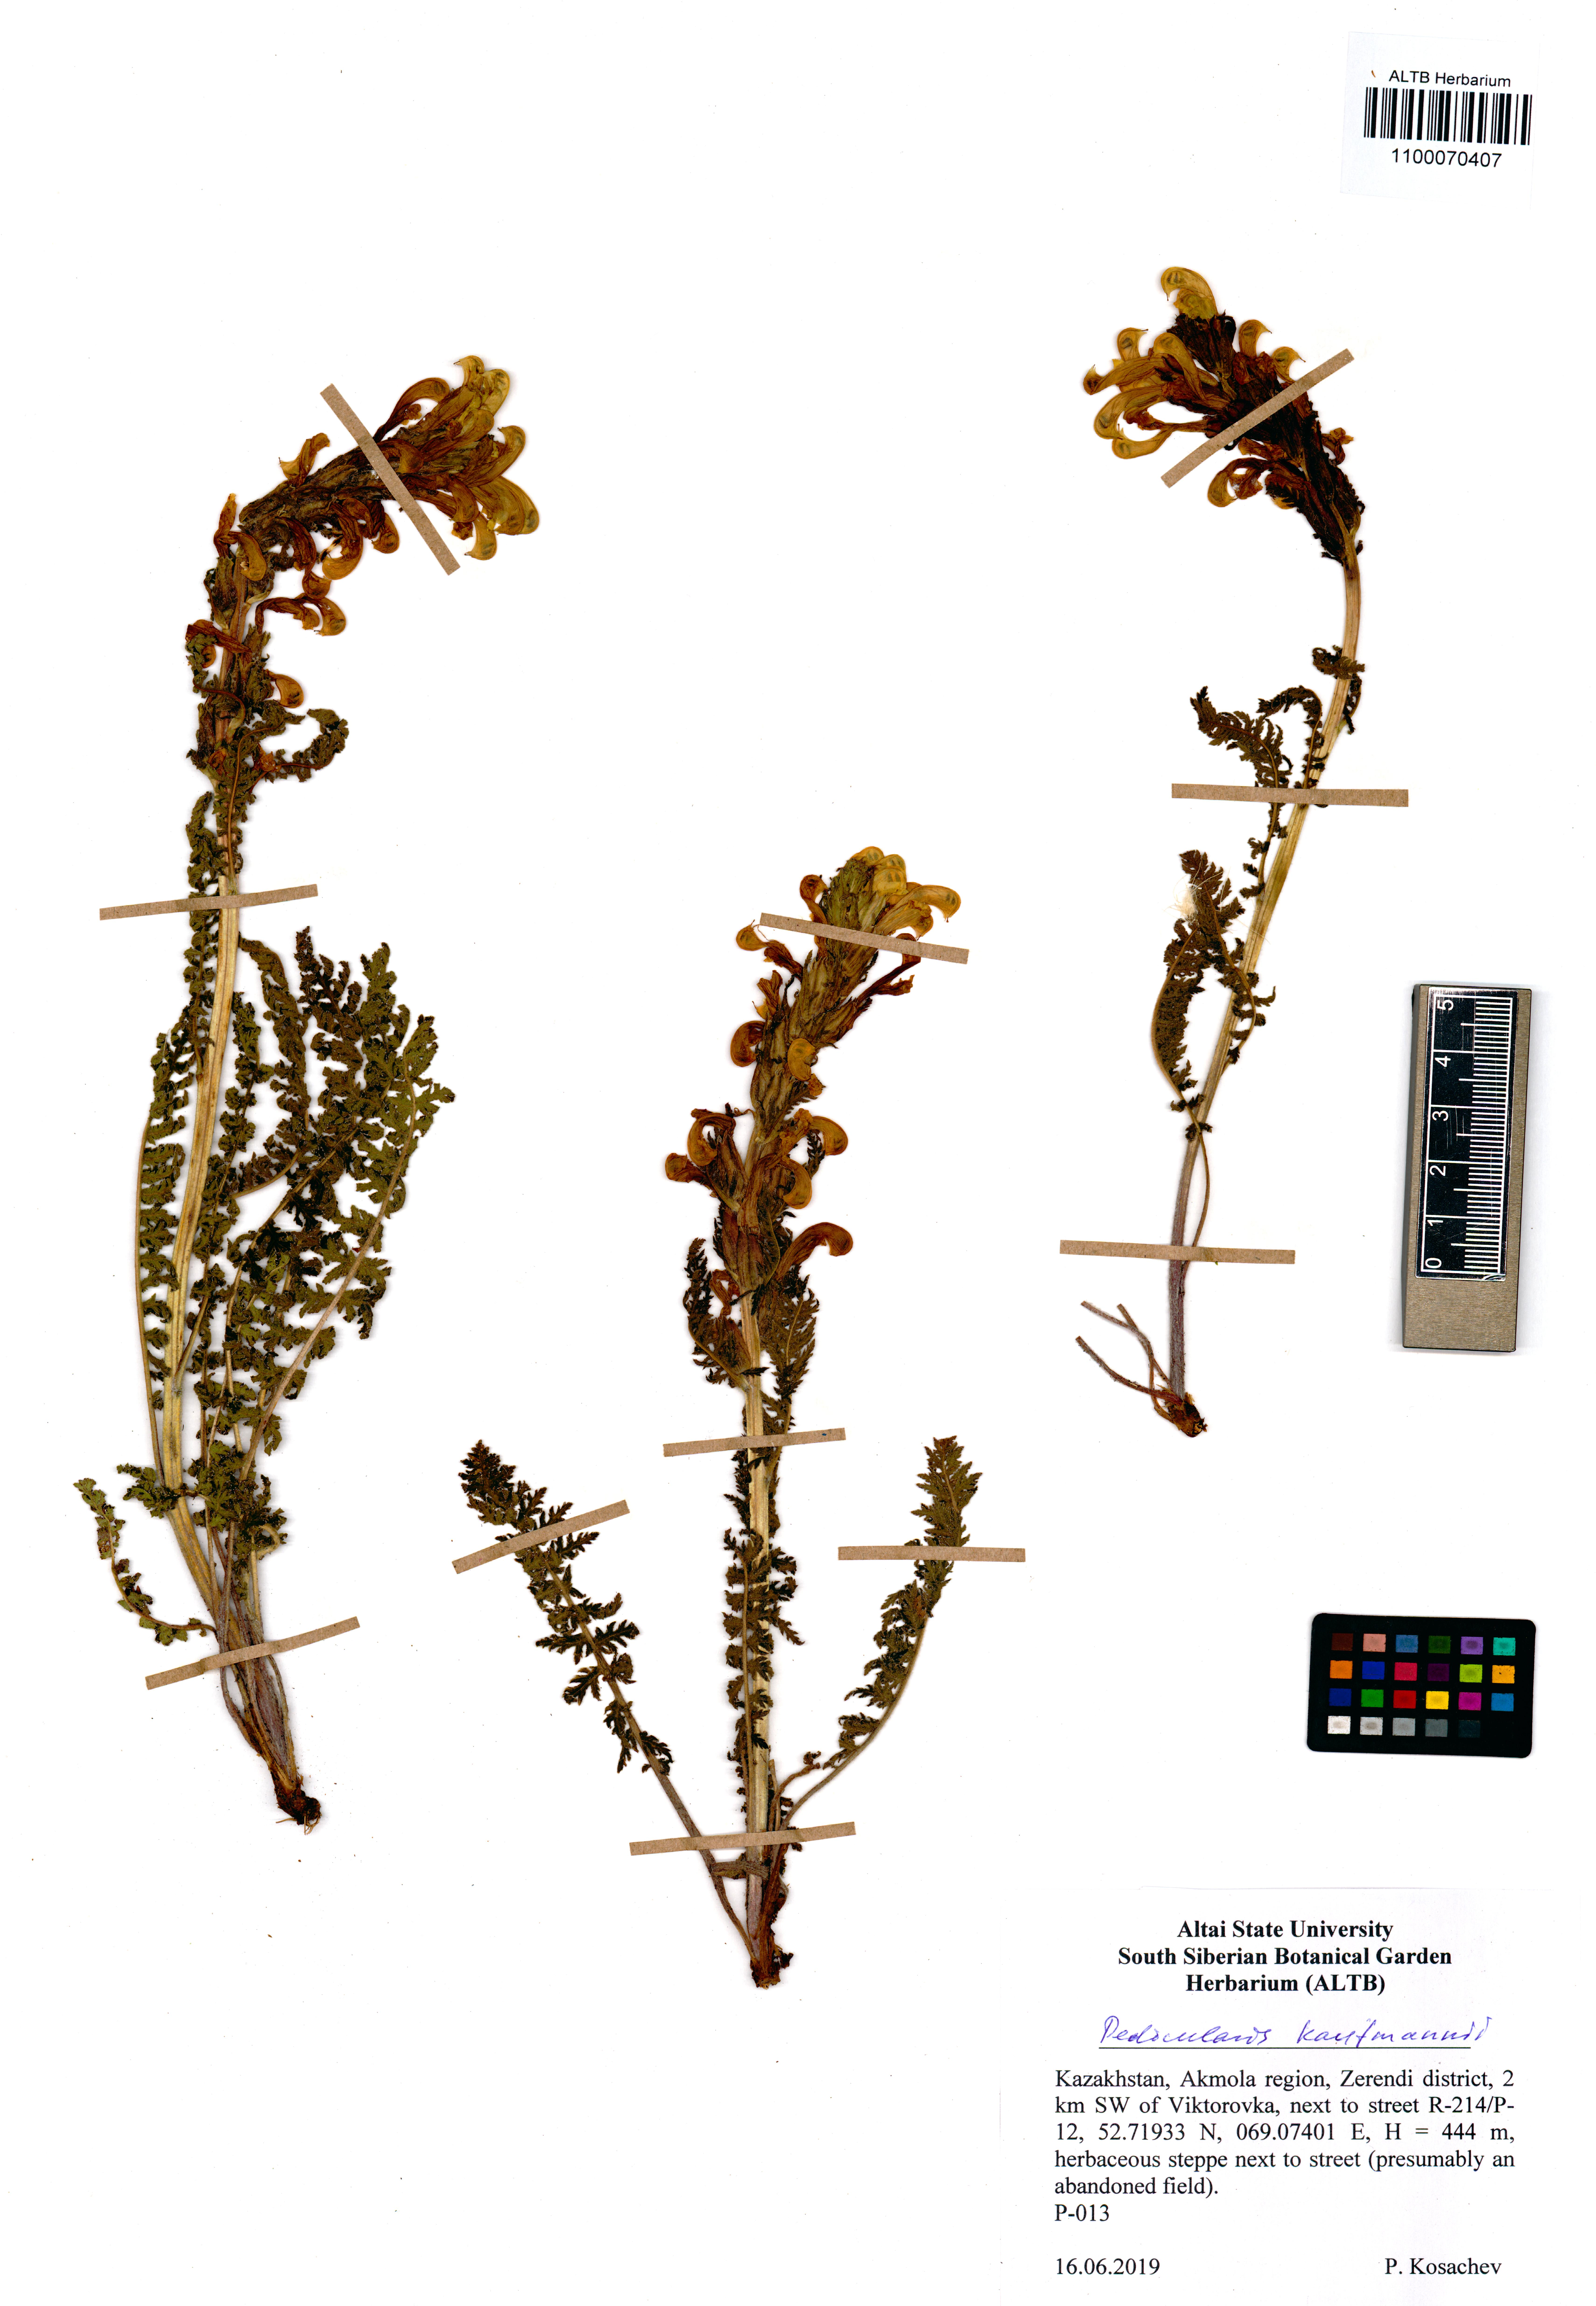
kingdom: Plantae
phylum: Tracheophyta
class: Magnoliopsida
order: Lamiales
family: Orobanchaceae
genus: Pedicularis
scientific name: Pedicularis kaufmannii
